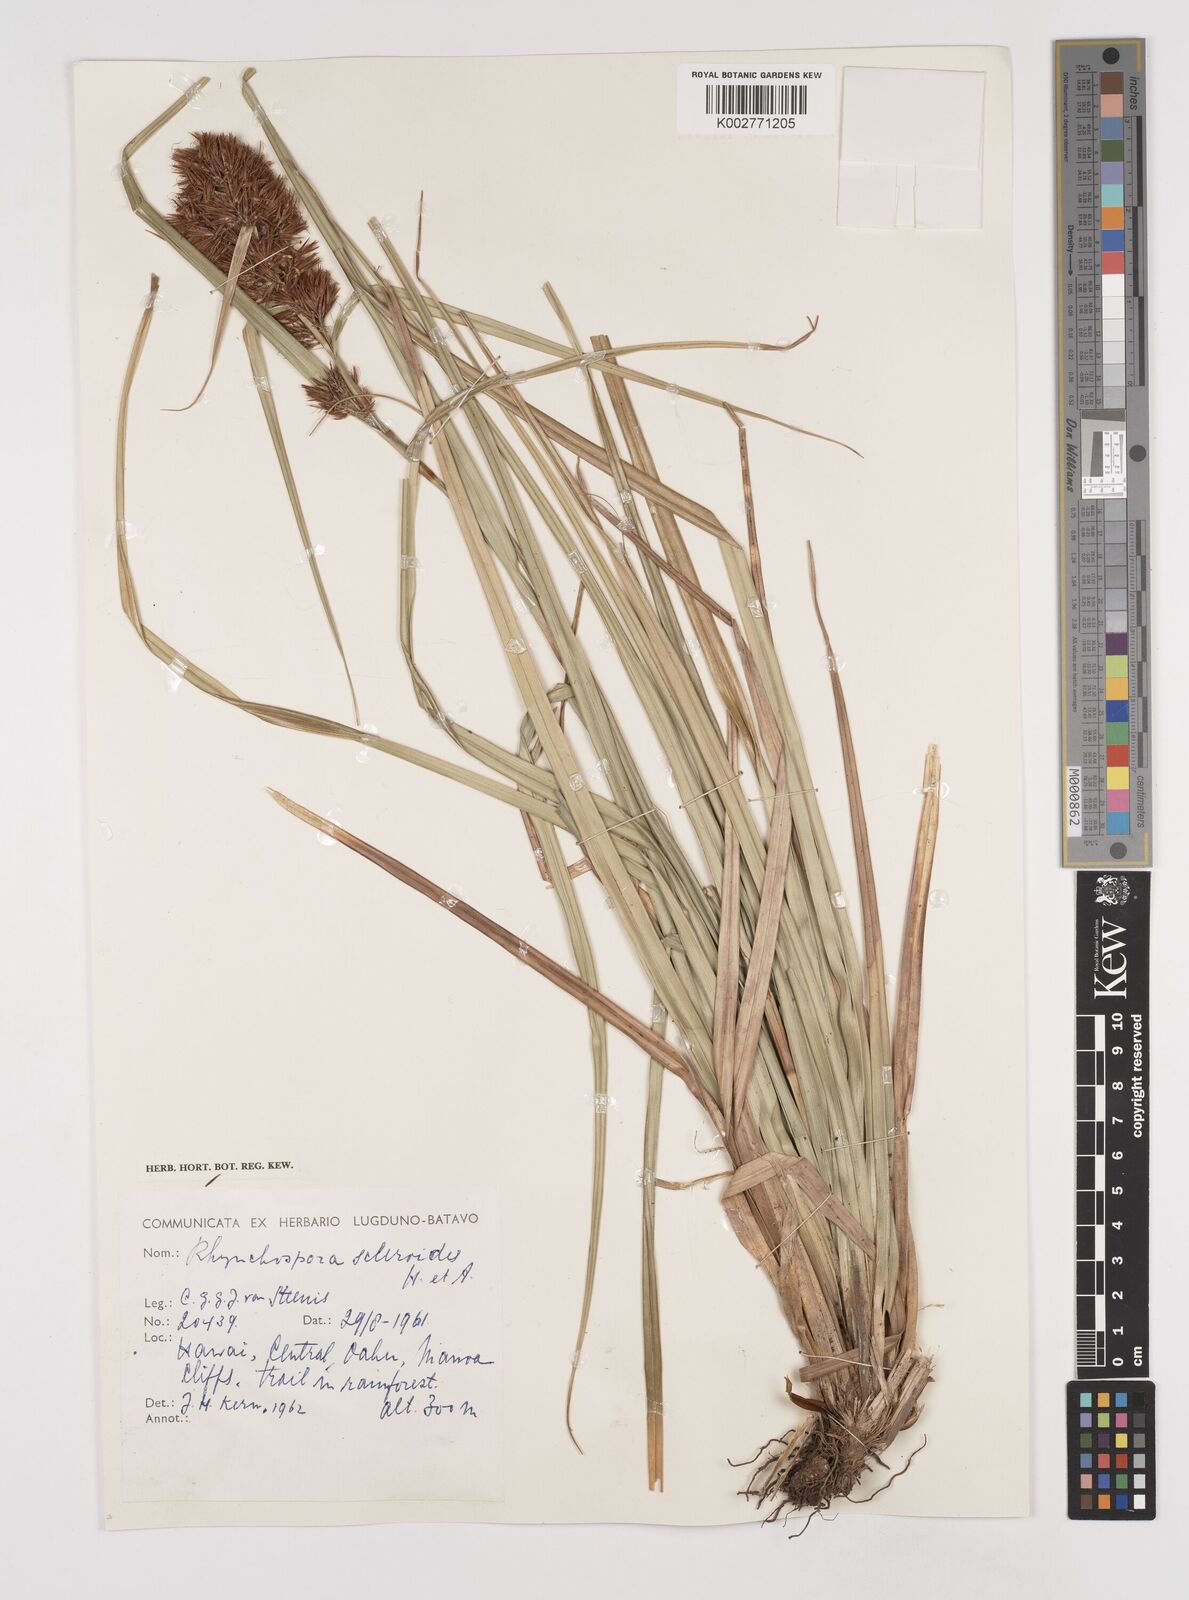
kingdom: Plantae
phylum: Tracheophyta
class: Liliopsida
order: Poales
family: Cyperaceae
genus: Rhynchospora
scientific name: Rhynchospora sclerioides
